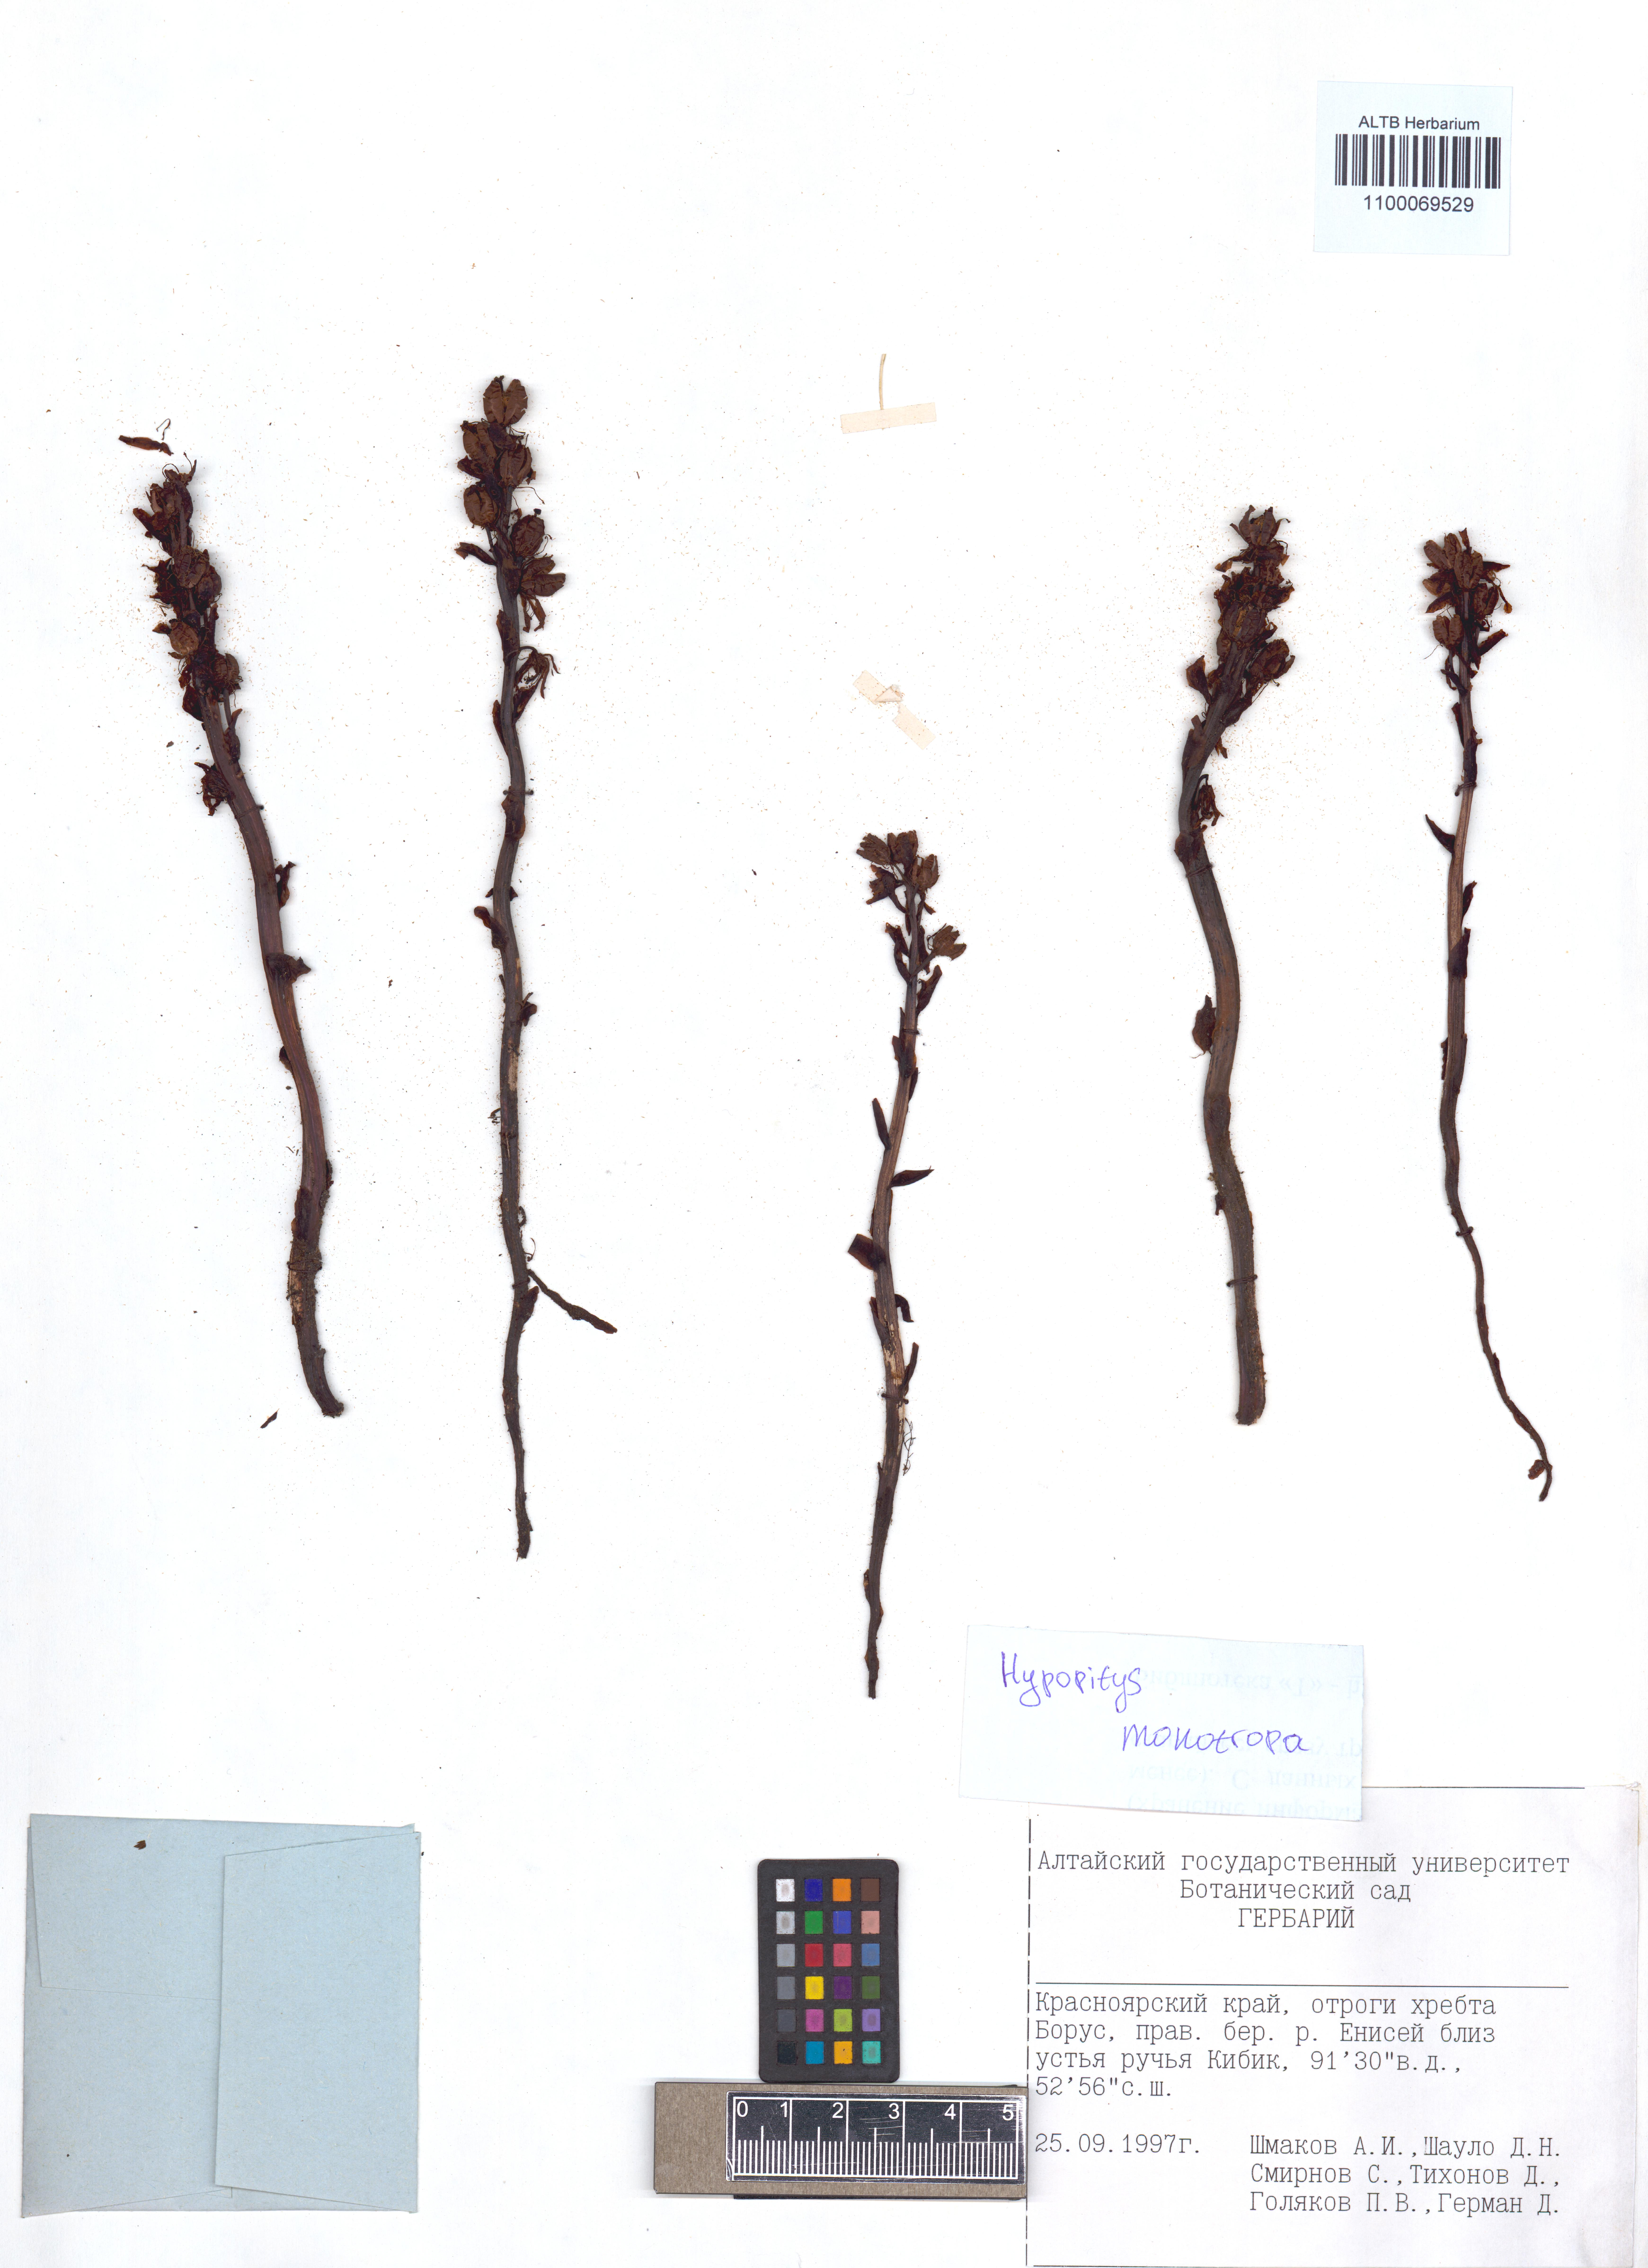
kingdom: Plantae
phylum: Tracheophyta
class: Magnoliopsida
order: Ericales
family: Ericaceae
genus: Hypopitys
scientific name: Hypopitys monotropa
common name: Yellow bird's-nest
